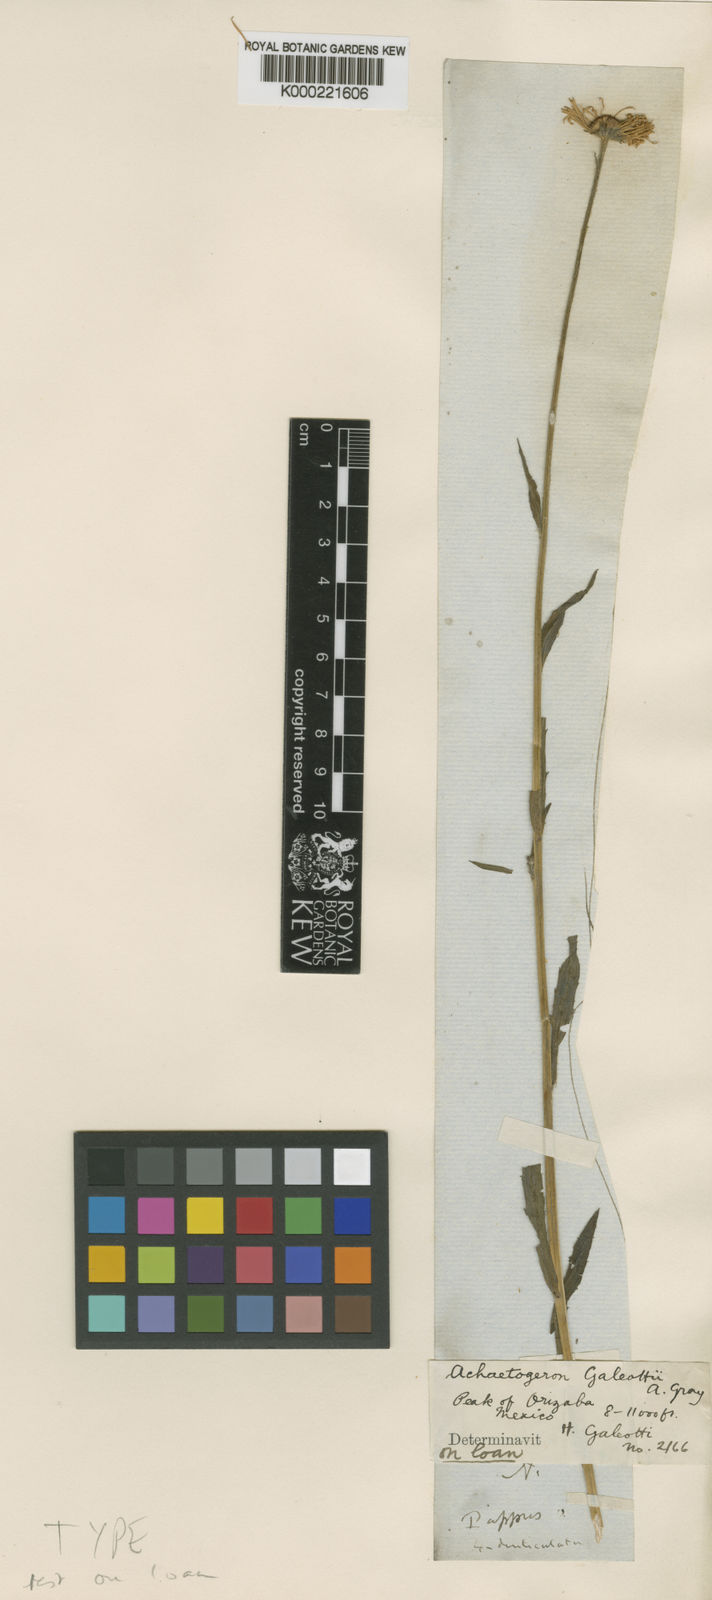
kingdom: Plantae
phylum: Tracheophyta
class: Magnoliopsida
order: Asterales
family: Asteraceae
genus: Erigeron
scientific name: Erigeron
